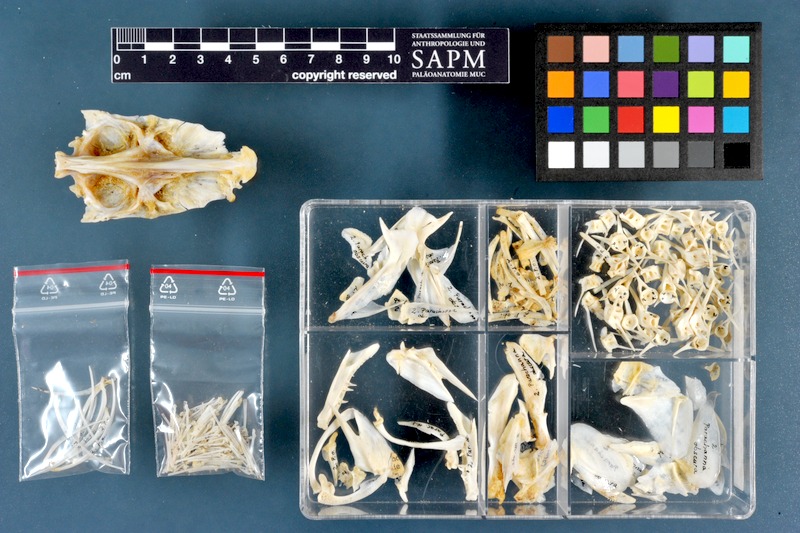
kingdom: Animalia
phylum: Chordata
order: Perciformes
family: Channidae
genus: Parachanna
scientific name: Parachanna obscura
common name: Snake-head
